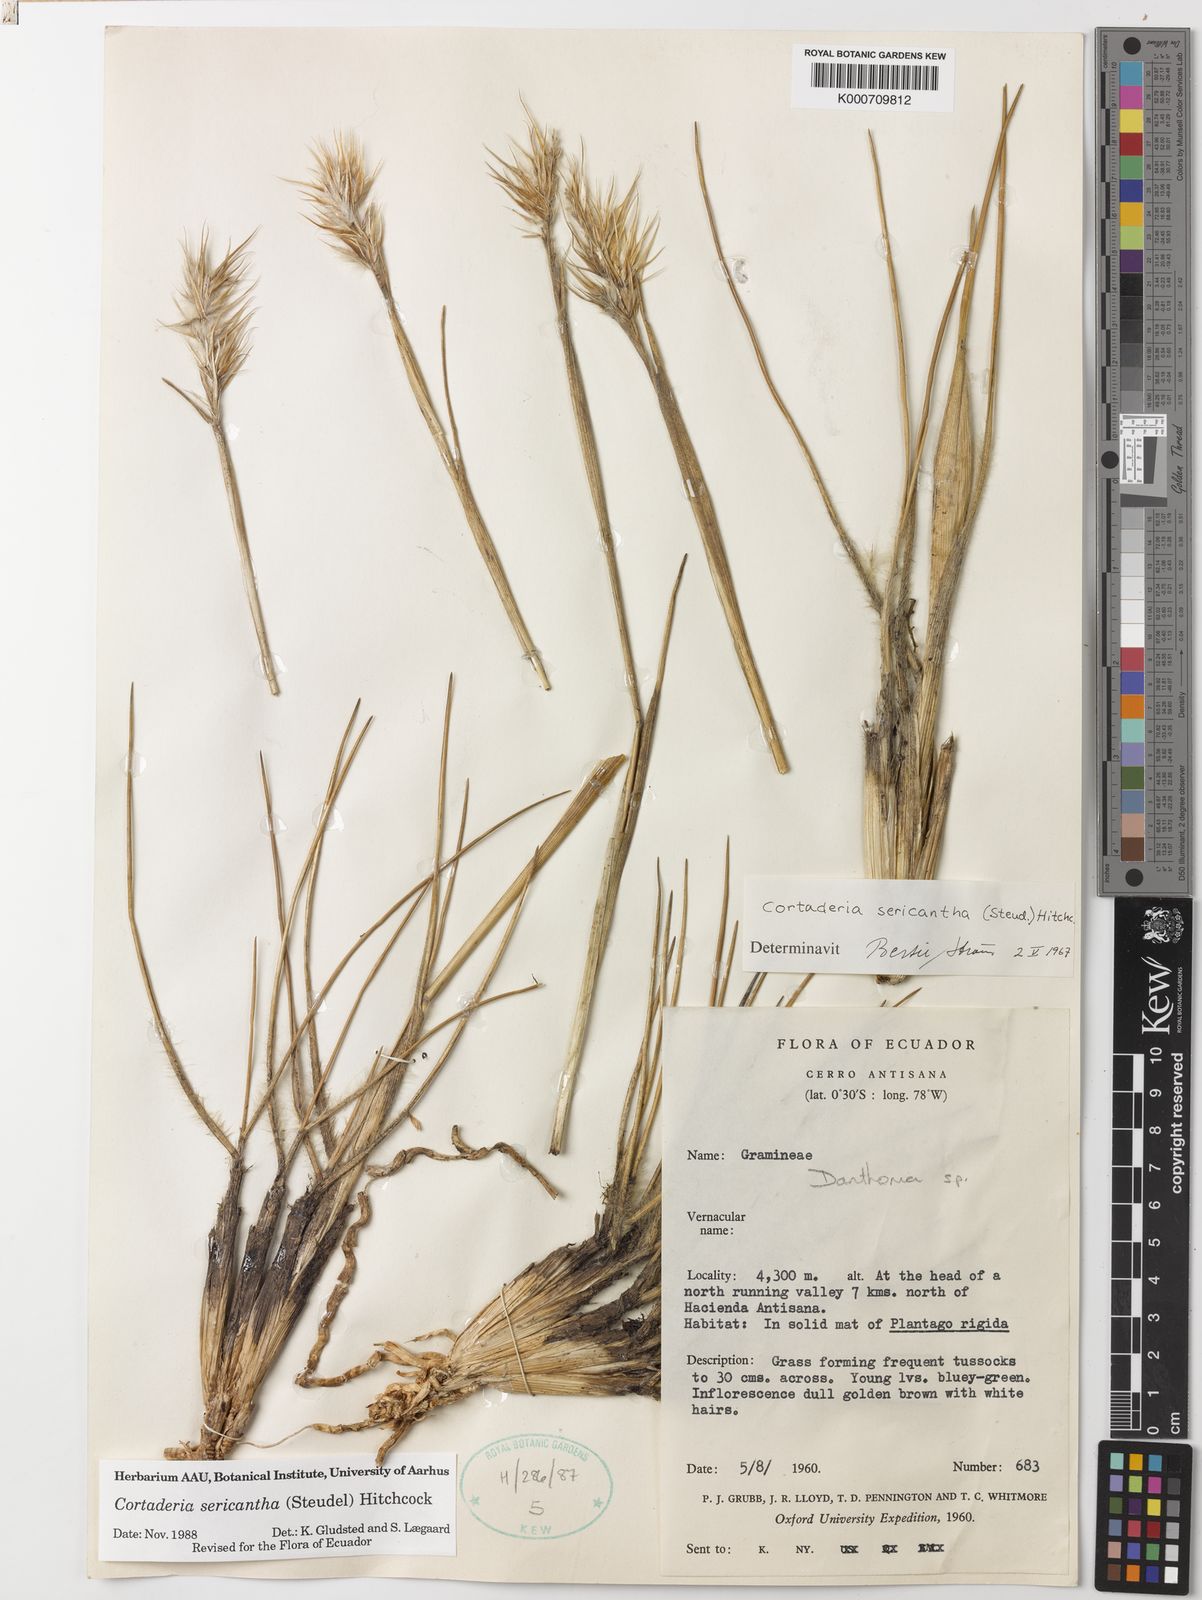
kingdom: Plantae
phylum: Tracheophyta
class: Liliopsida
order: Poales
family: Poaceae
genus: Cortaderia
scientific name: Cortaderia sericantha
